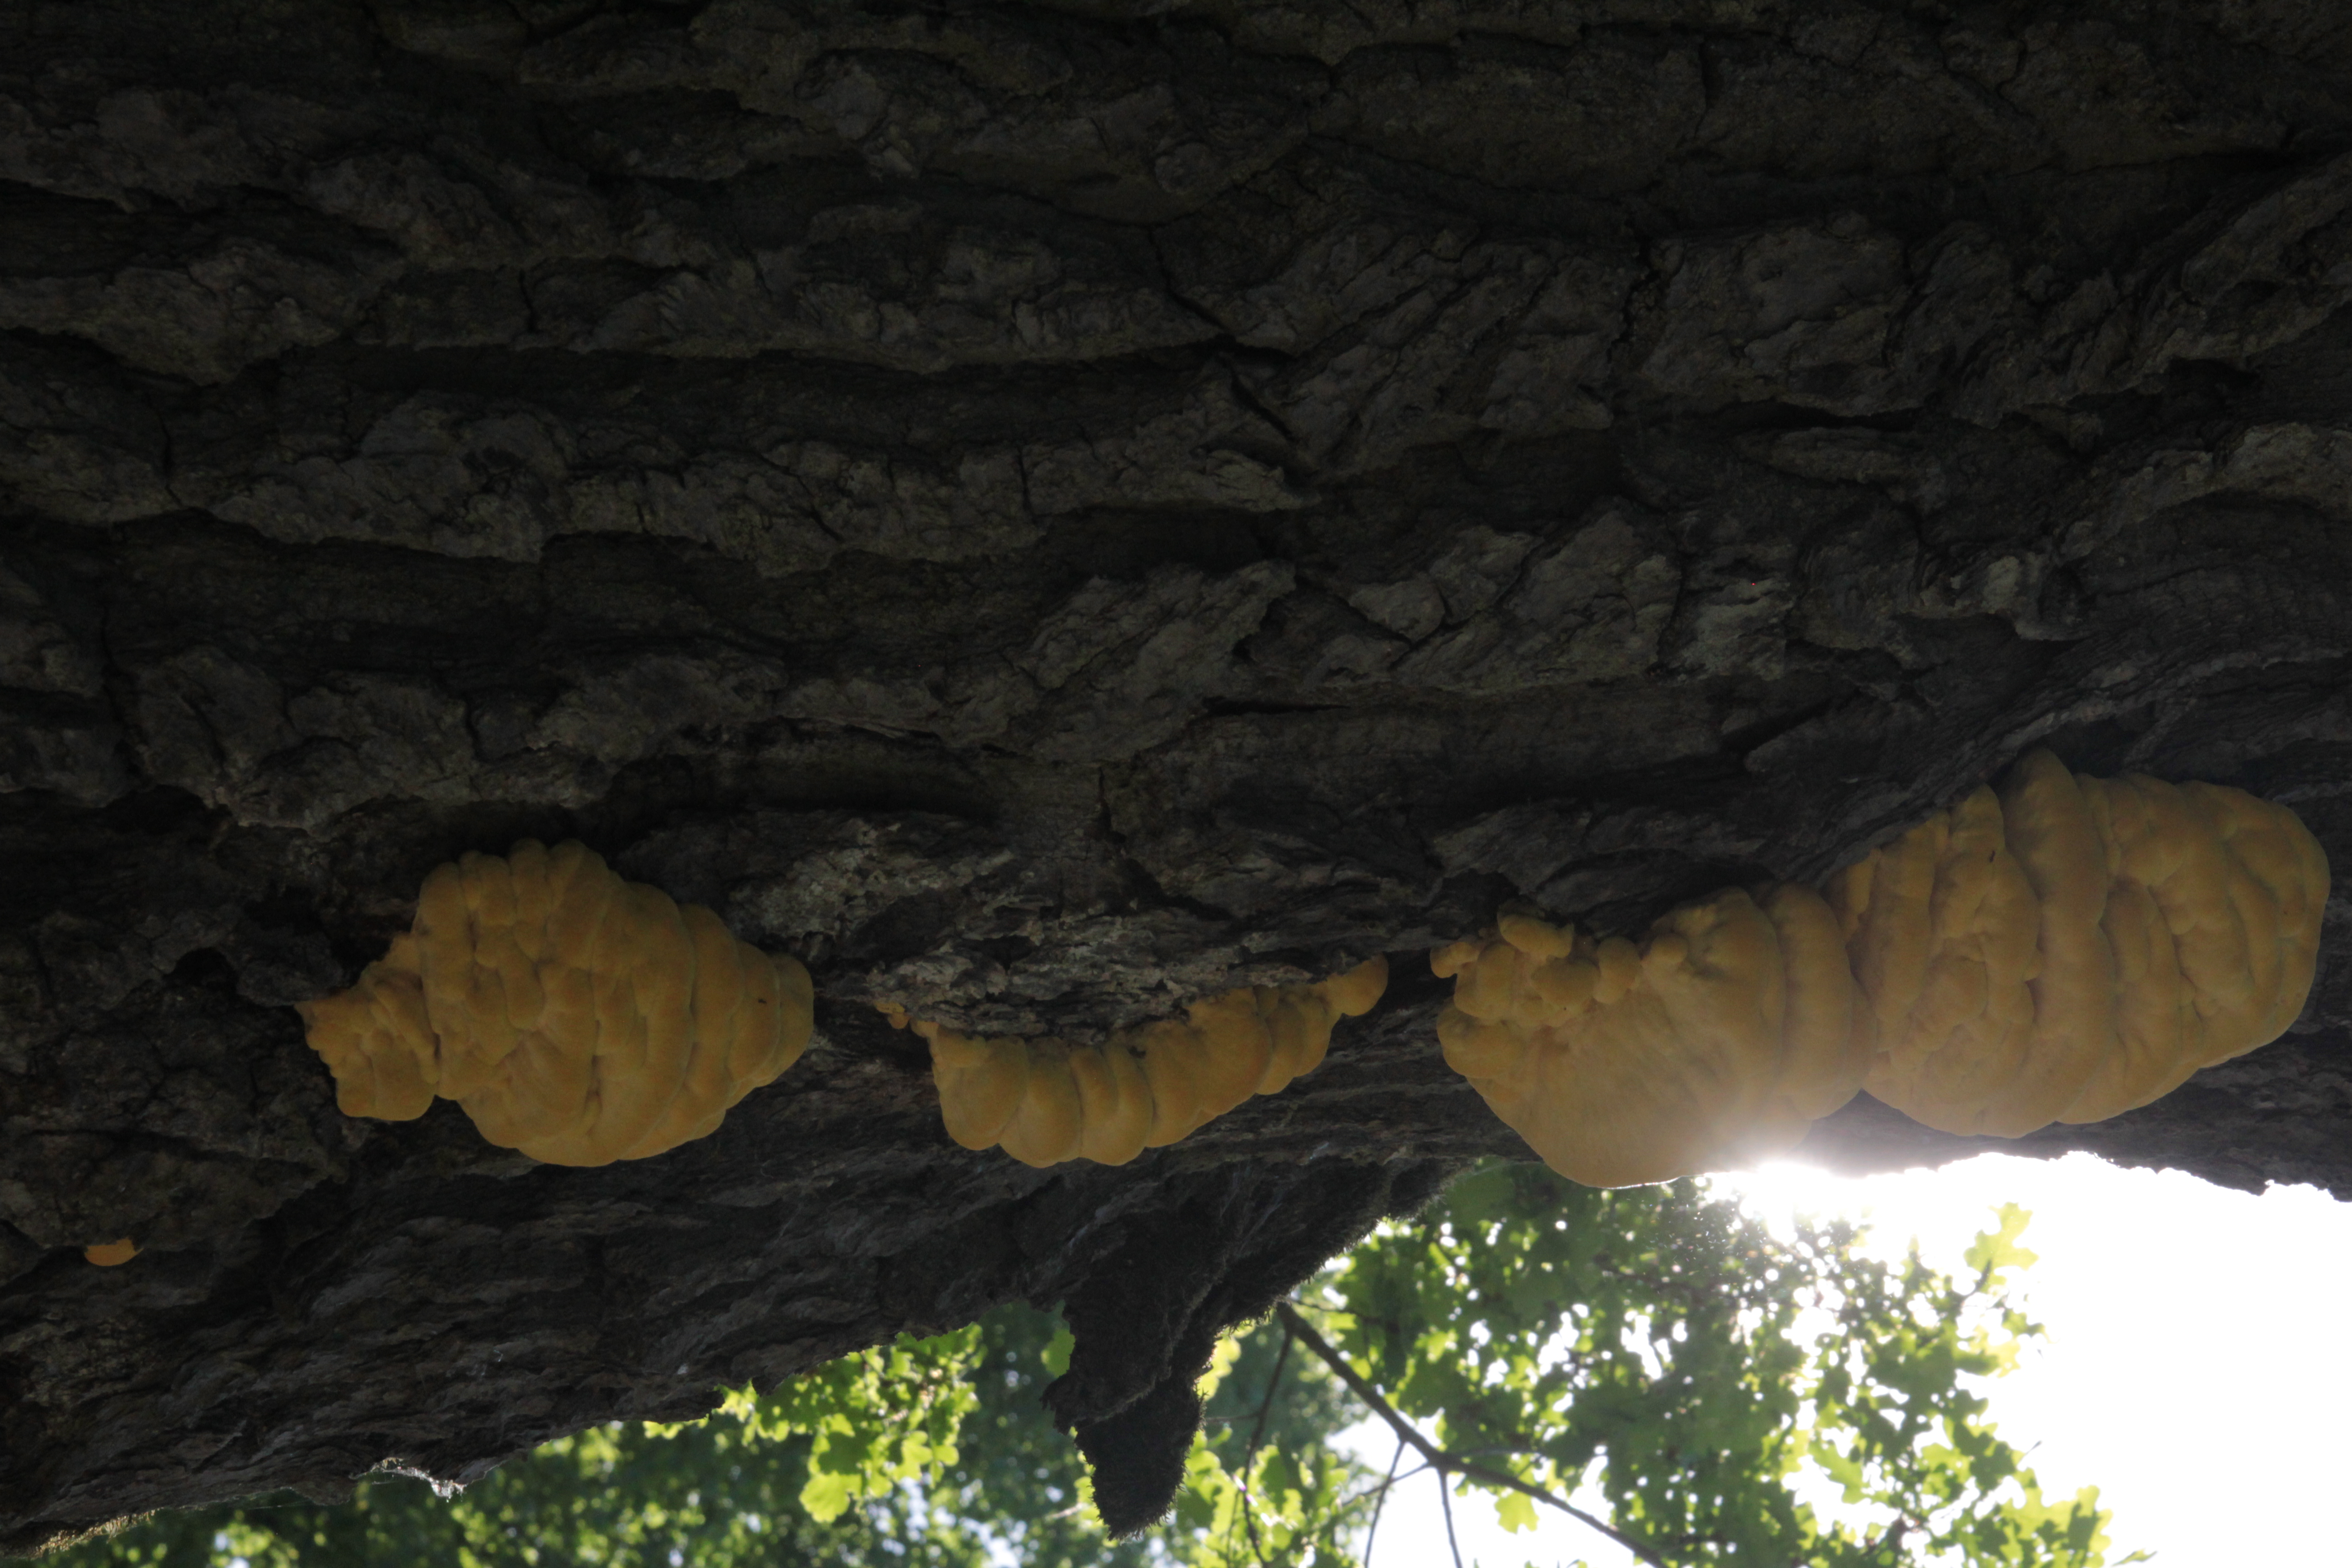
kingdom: Fungi
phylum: Basidiomycota
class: Agaricomycetes
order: Polyporales
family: Laetiporaceae
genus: Laetiporus
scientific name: Laetiporus sulphureus
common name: Chicken of the woods
